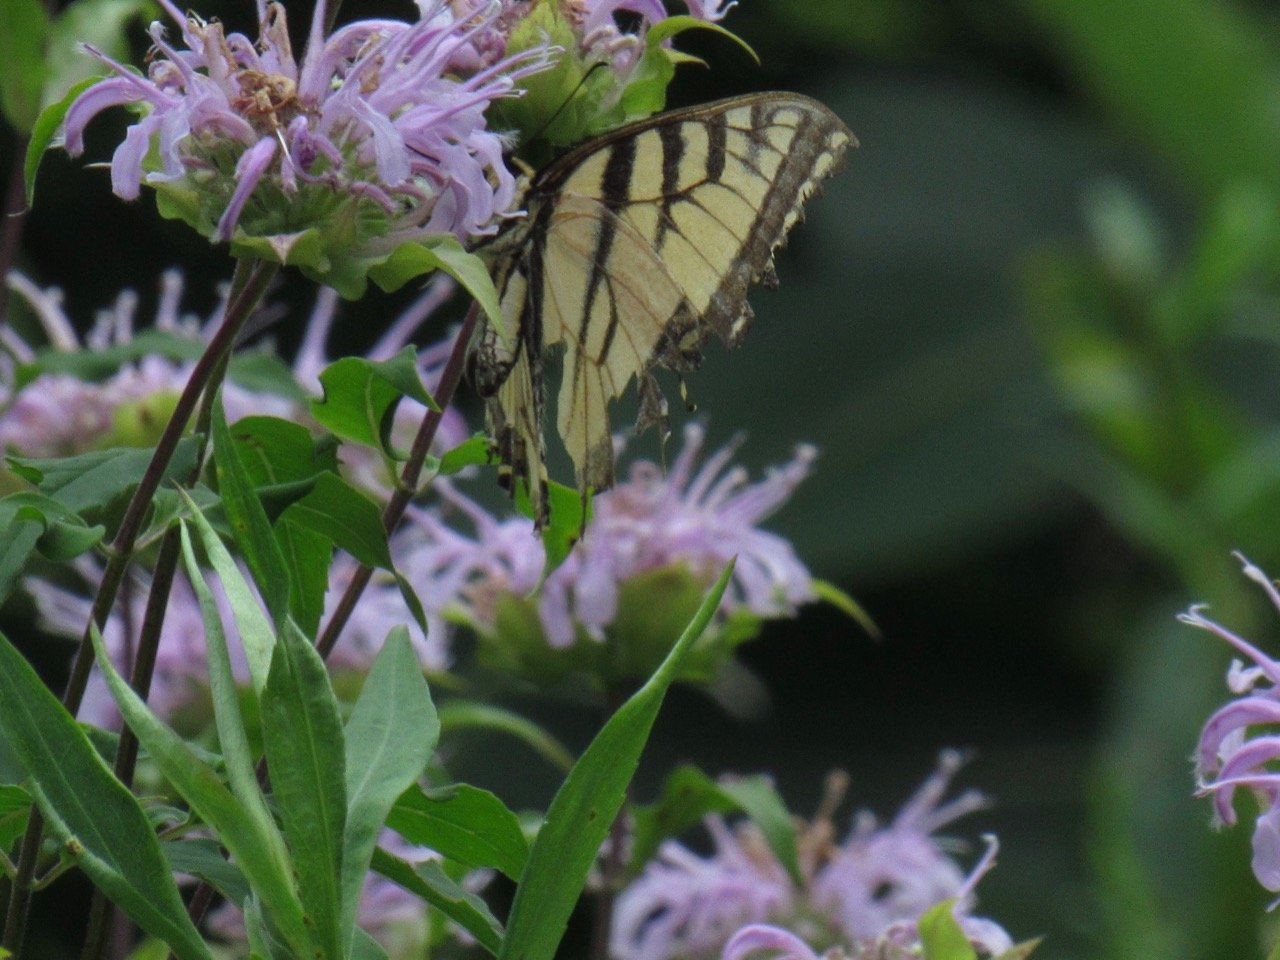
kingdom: Animalia
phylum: Arthropoda
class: Insecta
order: Lepidoptera
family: Papilionidae
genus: Pterourus
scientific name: Pterourus
